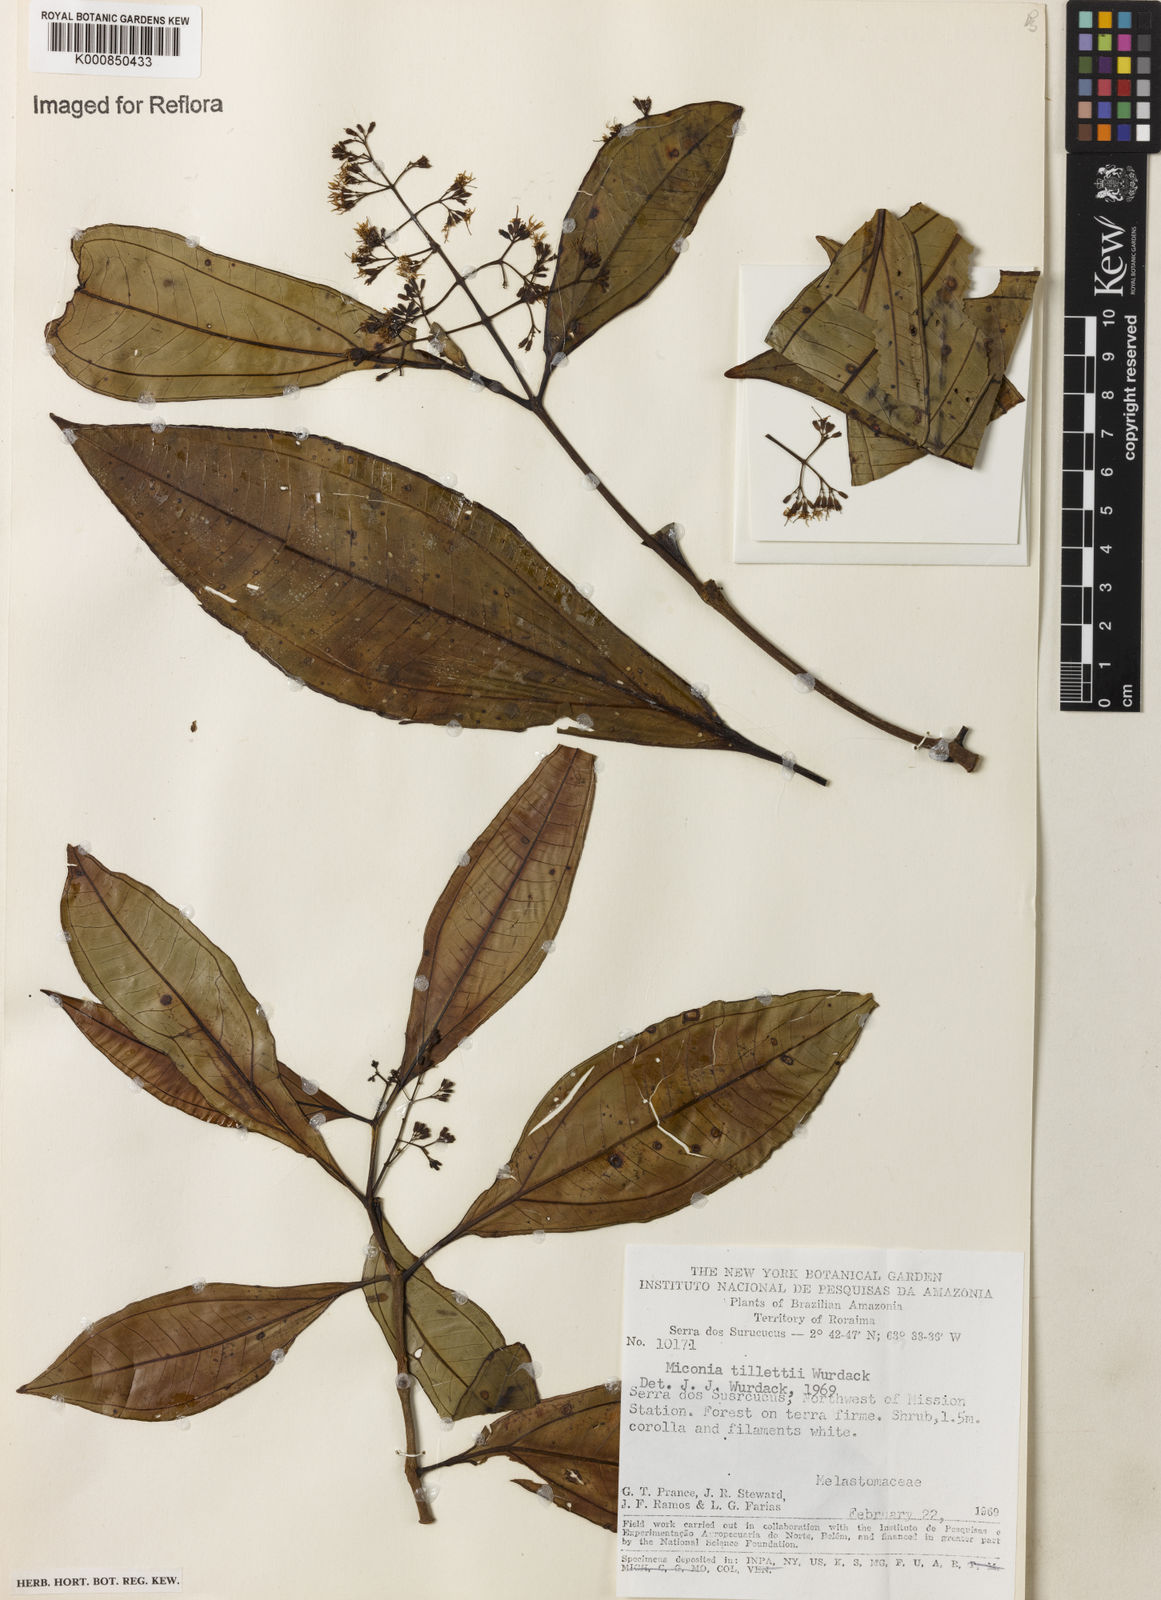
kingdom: Plantae
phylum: Tracheophyta
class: Magnoliopsida
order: Myrtales
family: Melastomataceae
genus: Miconia
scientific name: Miconia tillettii
